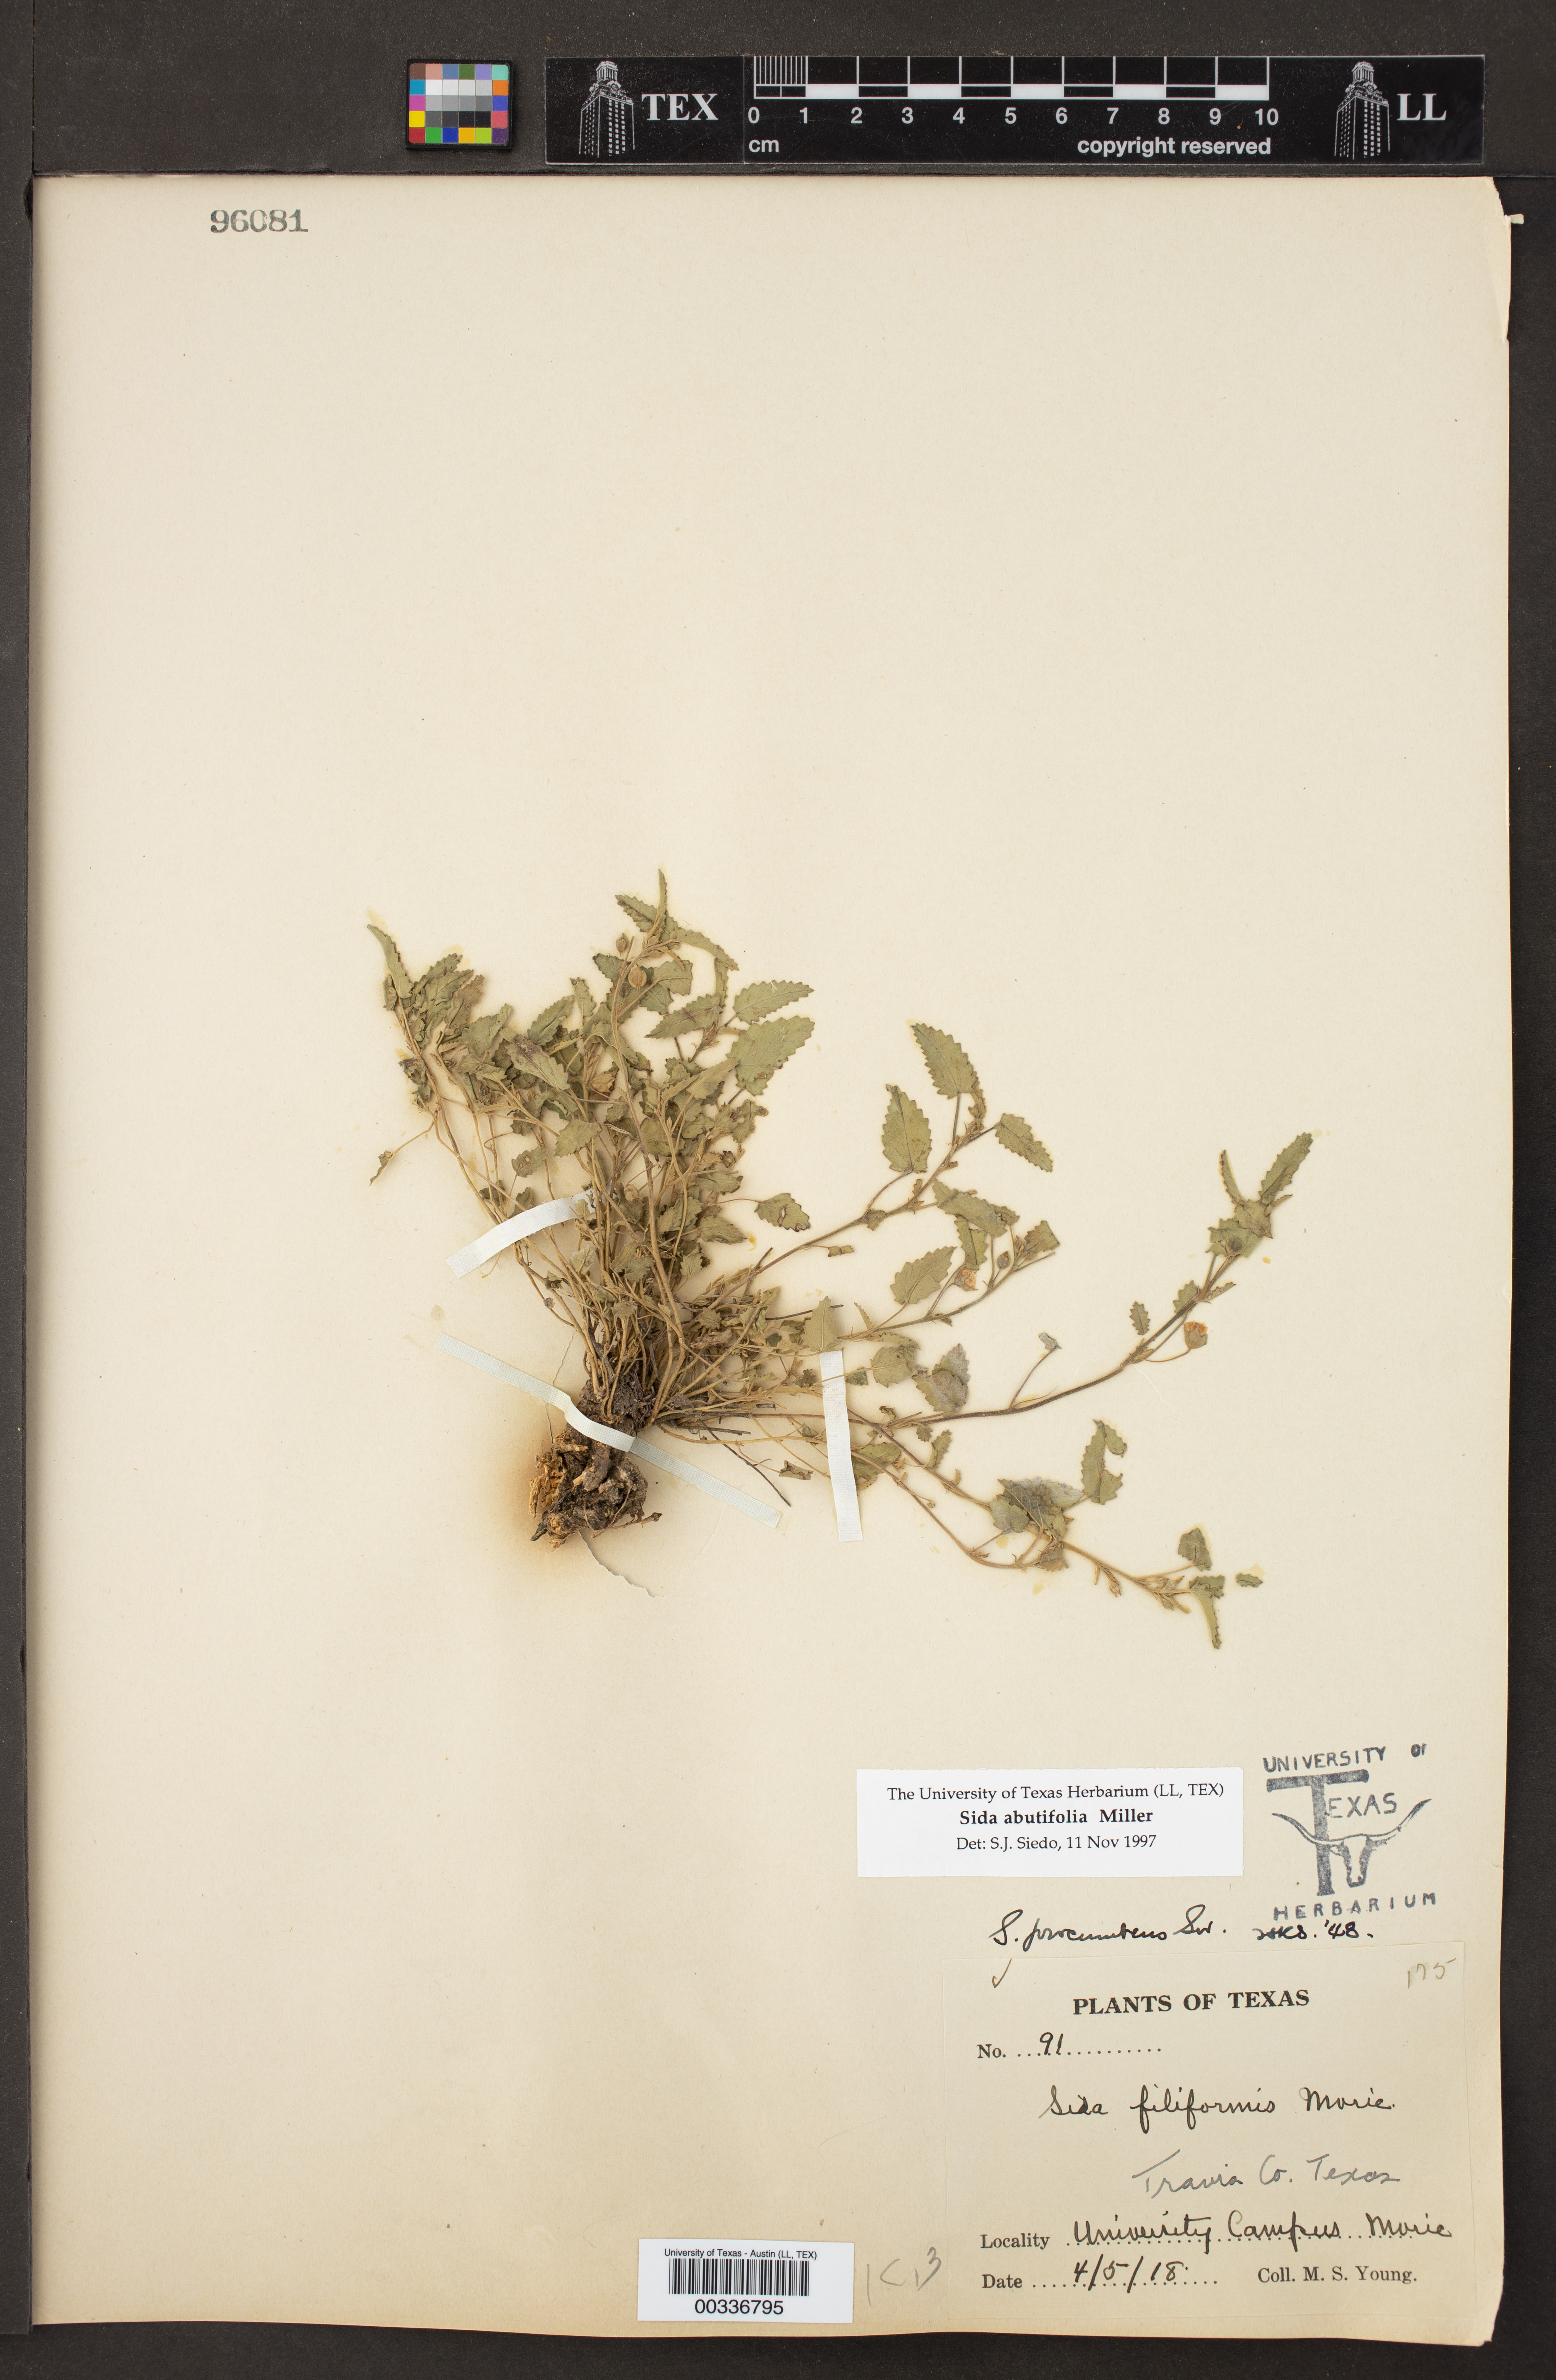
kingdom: Plantae
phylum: Tracheophyta
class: Magnoliopsida
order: Malvales
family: Malvaceae
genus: Sida
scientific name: Sida abutilifolia
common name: Spreading fanpetals
